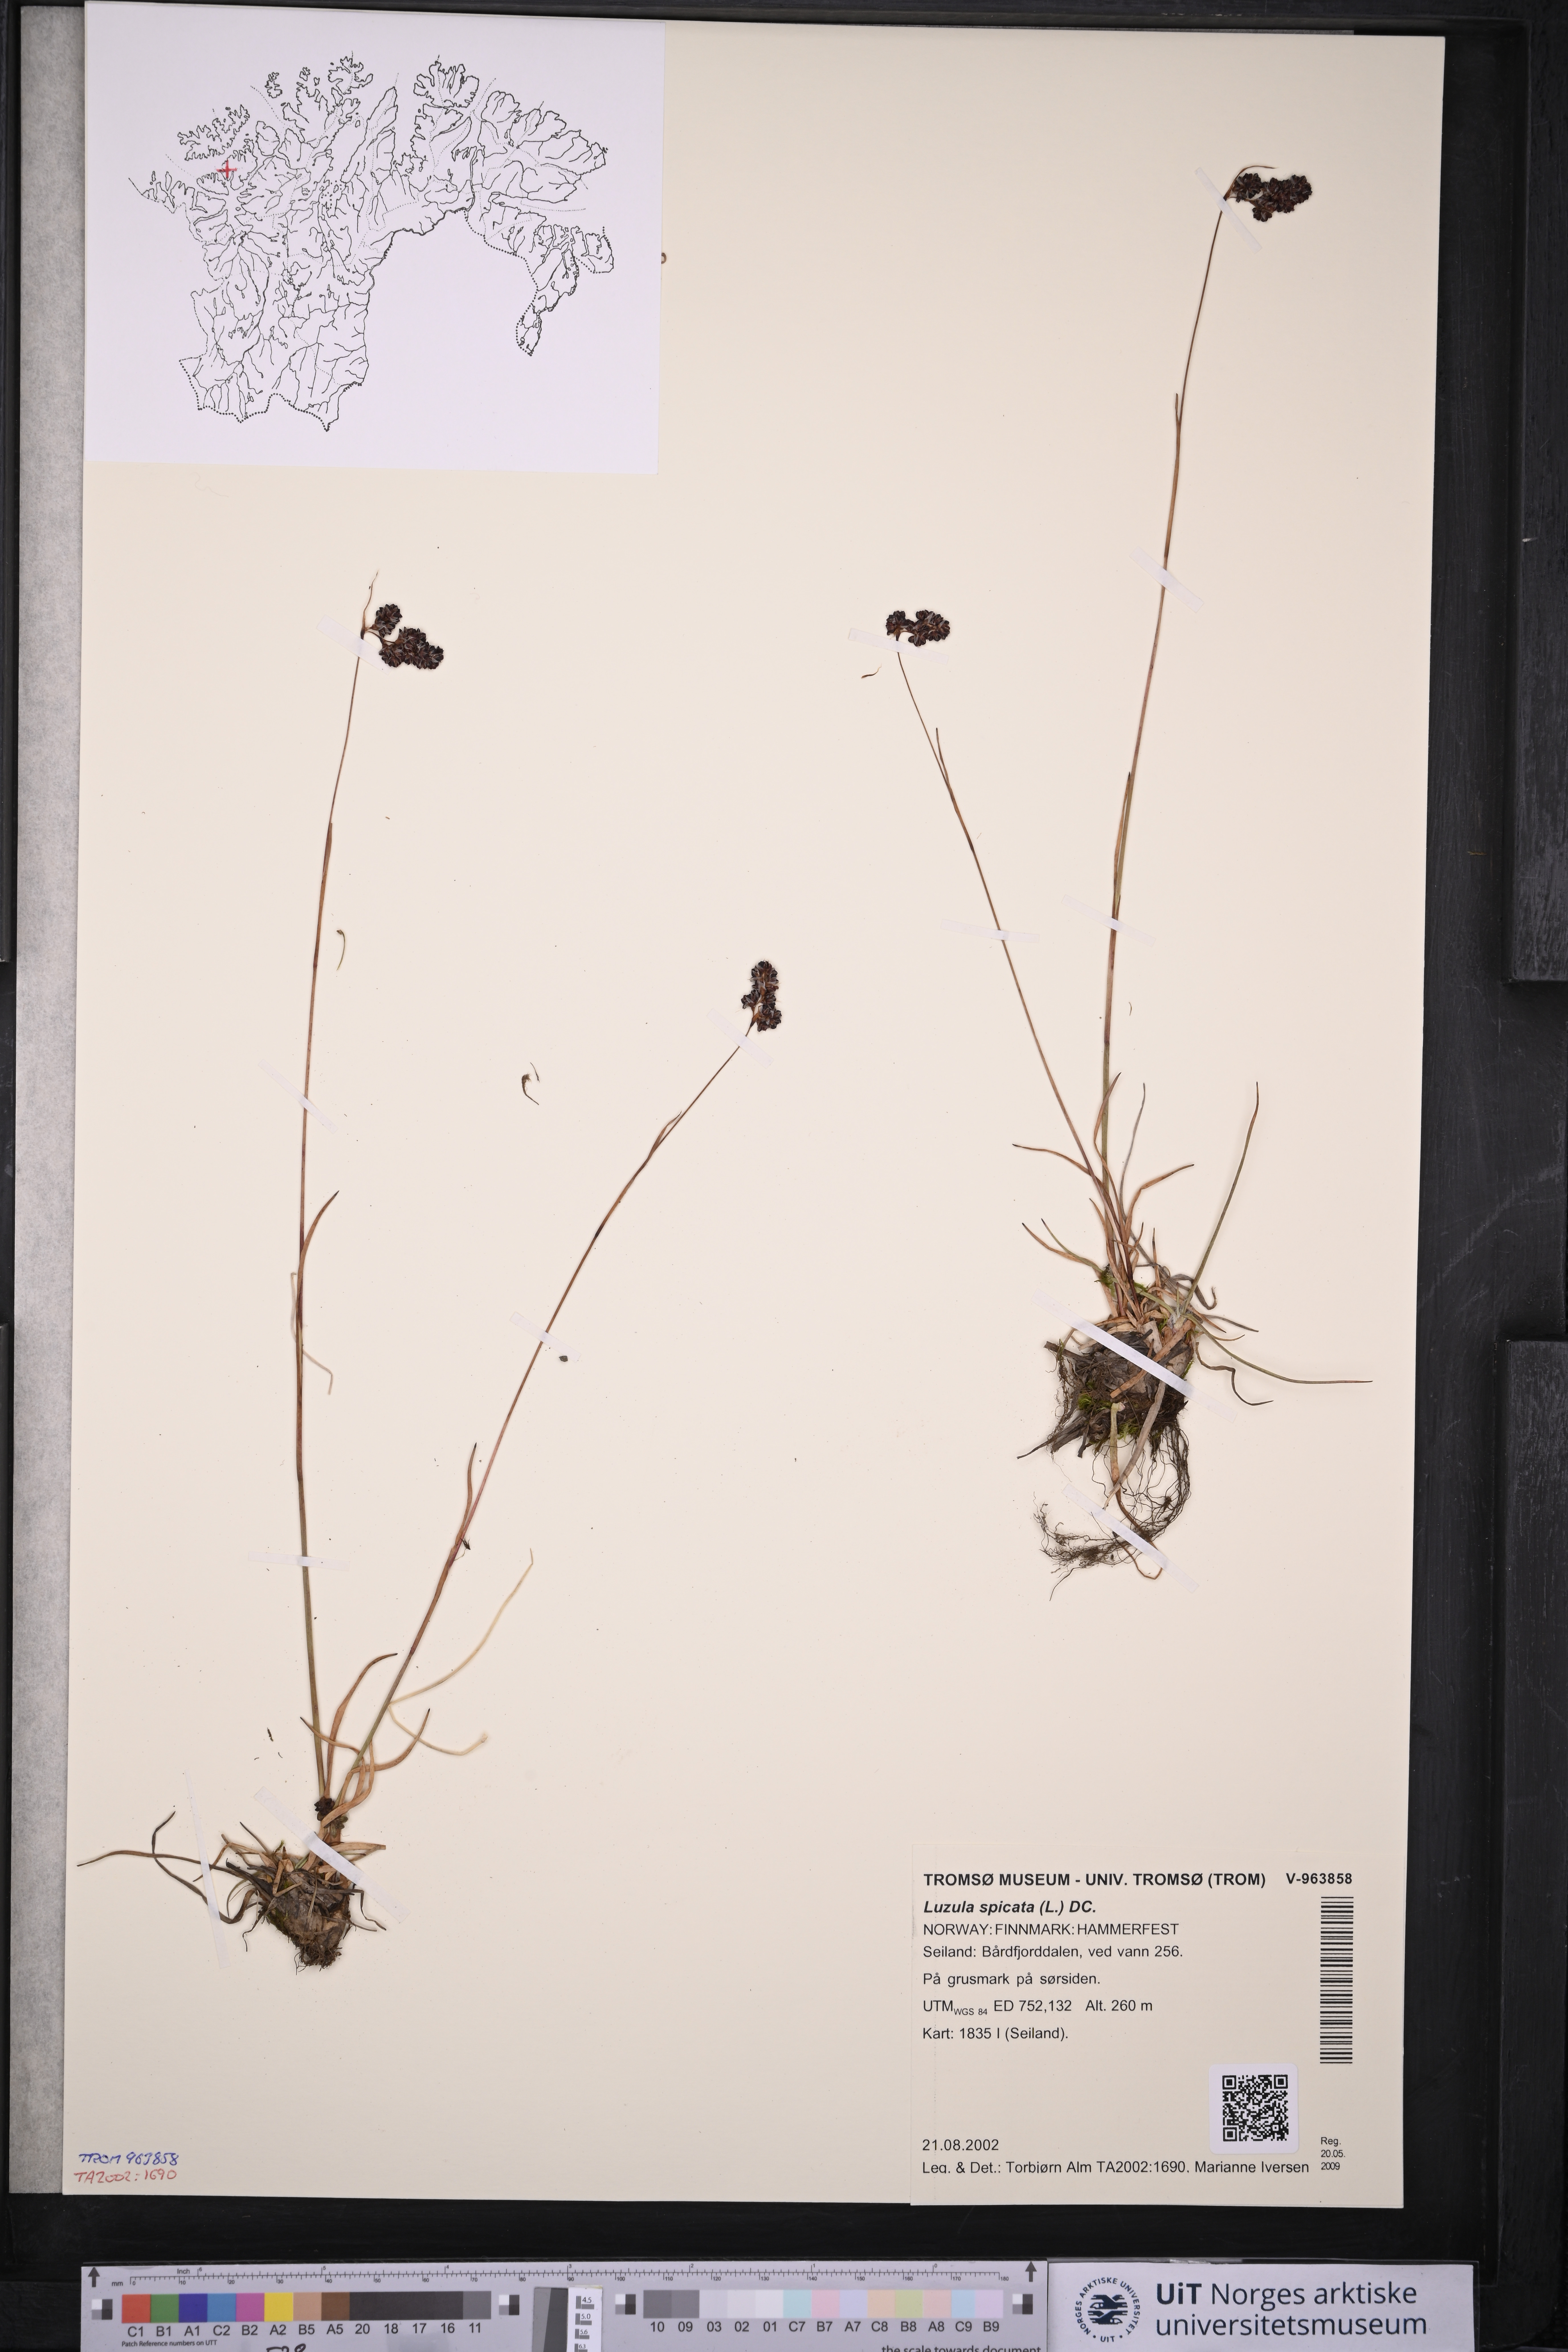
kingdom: Plantae
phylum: Tracheophyta
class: Liliopsida
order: Poales
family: Juncaceae
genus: Luzula
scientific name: Luzula spicata
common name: Spiked wood-rush
